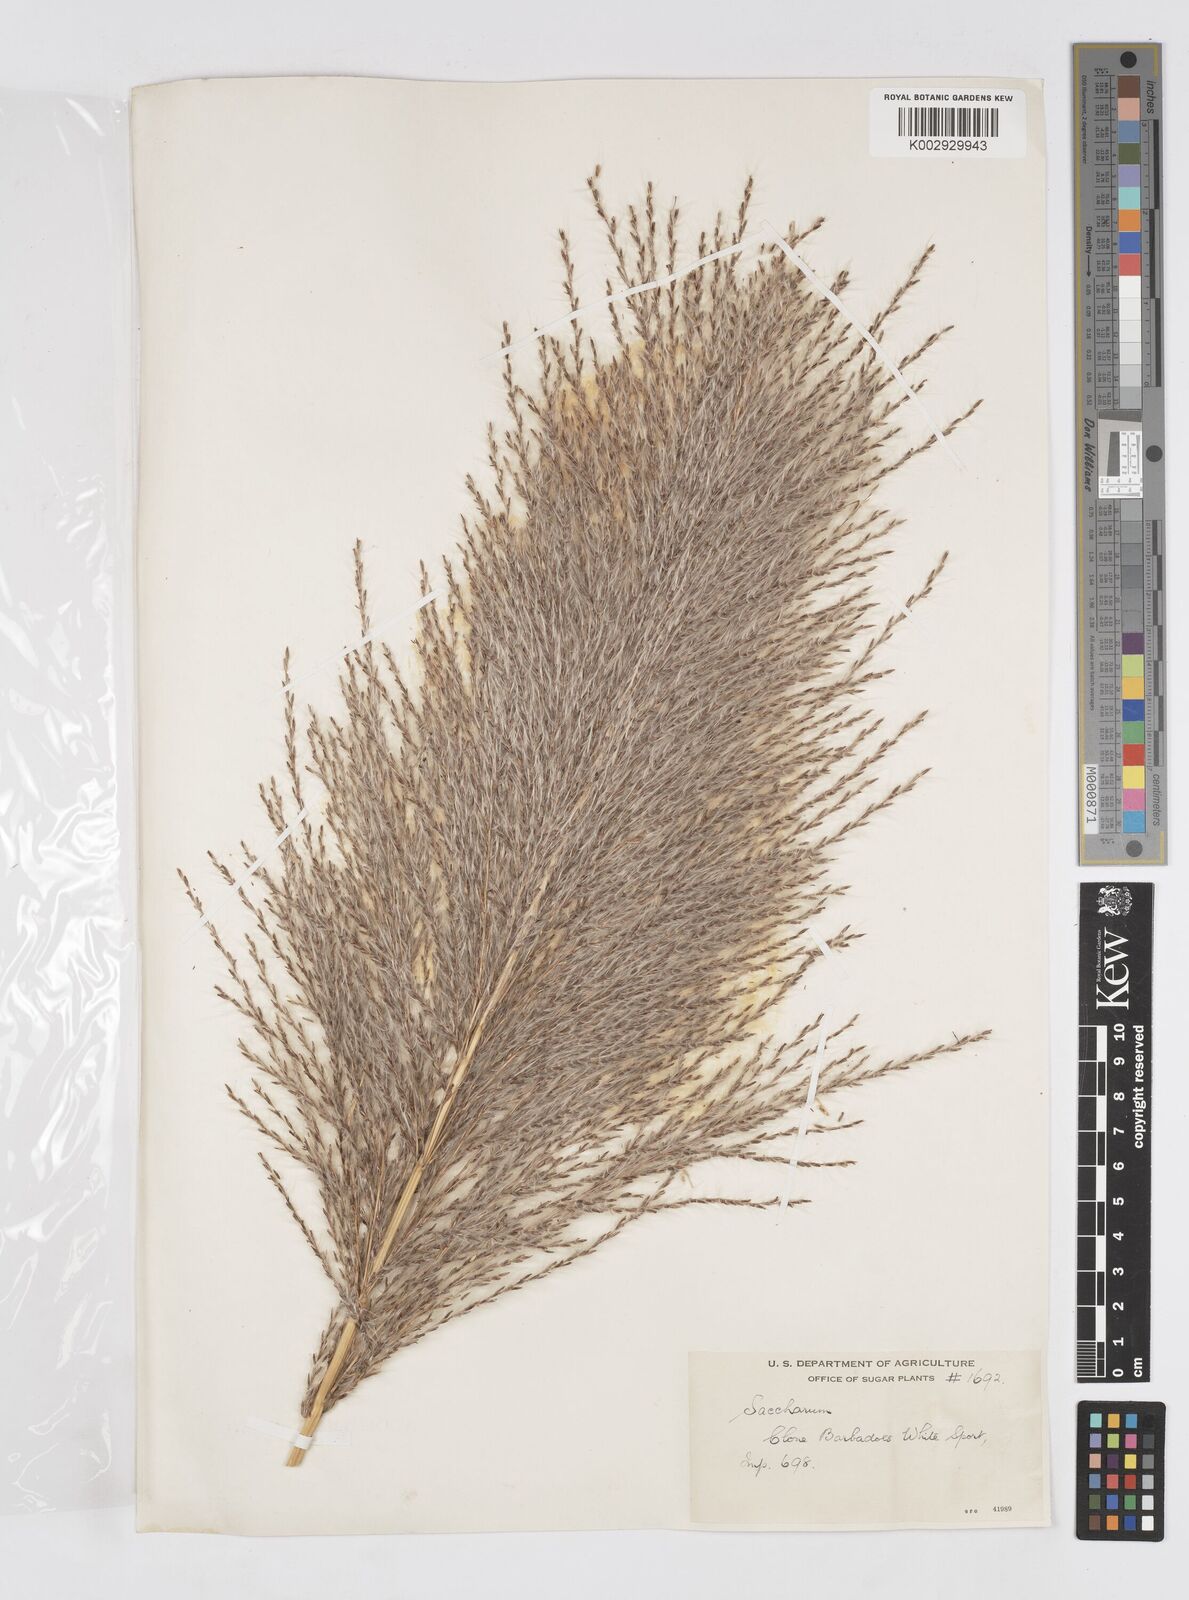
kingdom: Plantae
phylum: Tracheophyta
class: Liliopsida
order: Poales
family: Poaceae
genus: Saccharum
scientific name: Saccharum officinarum
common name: Sugarcane
